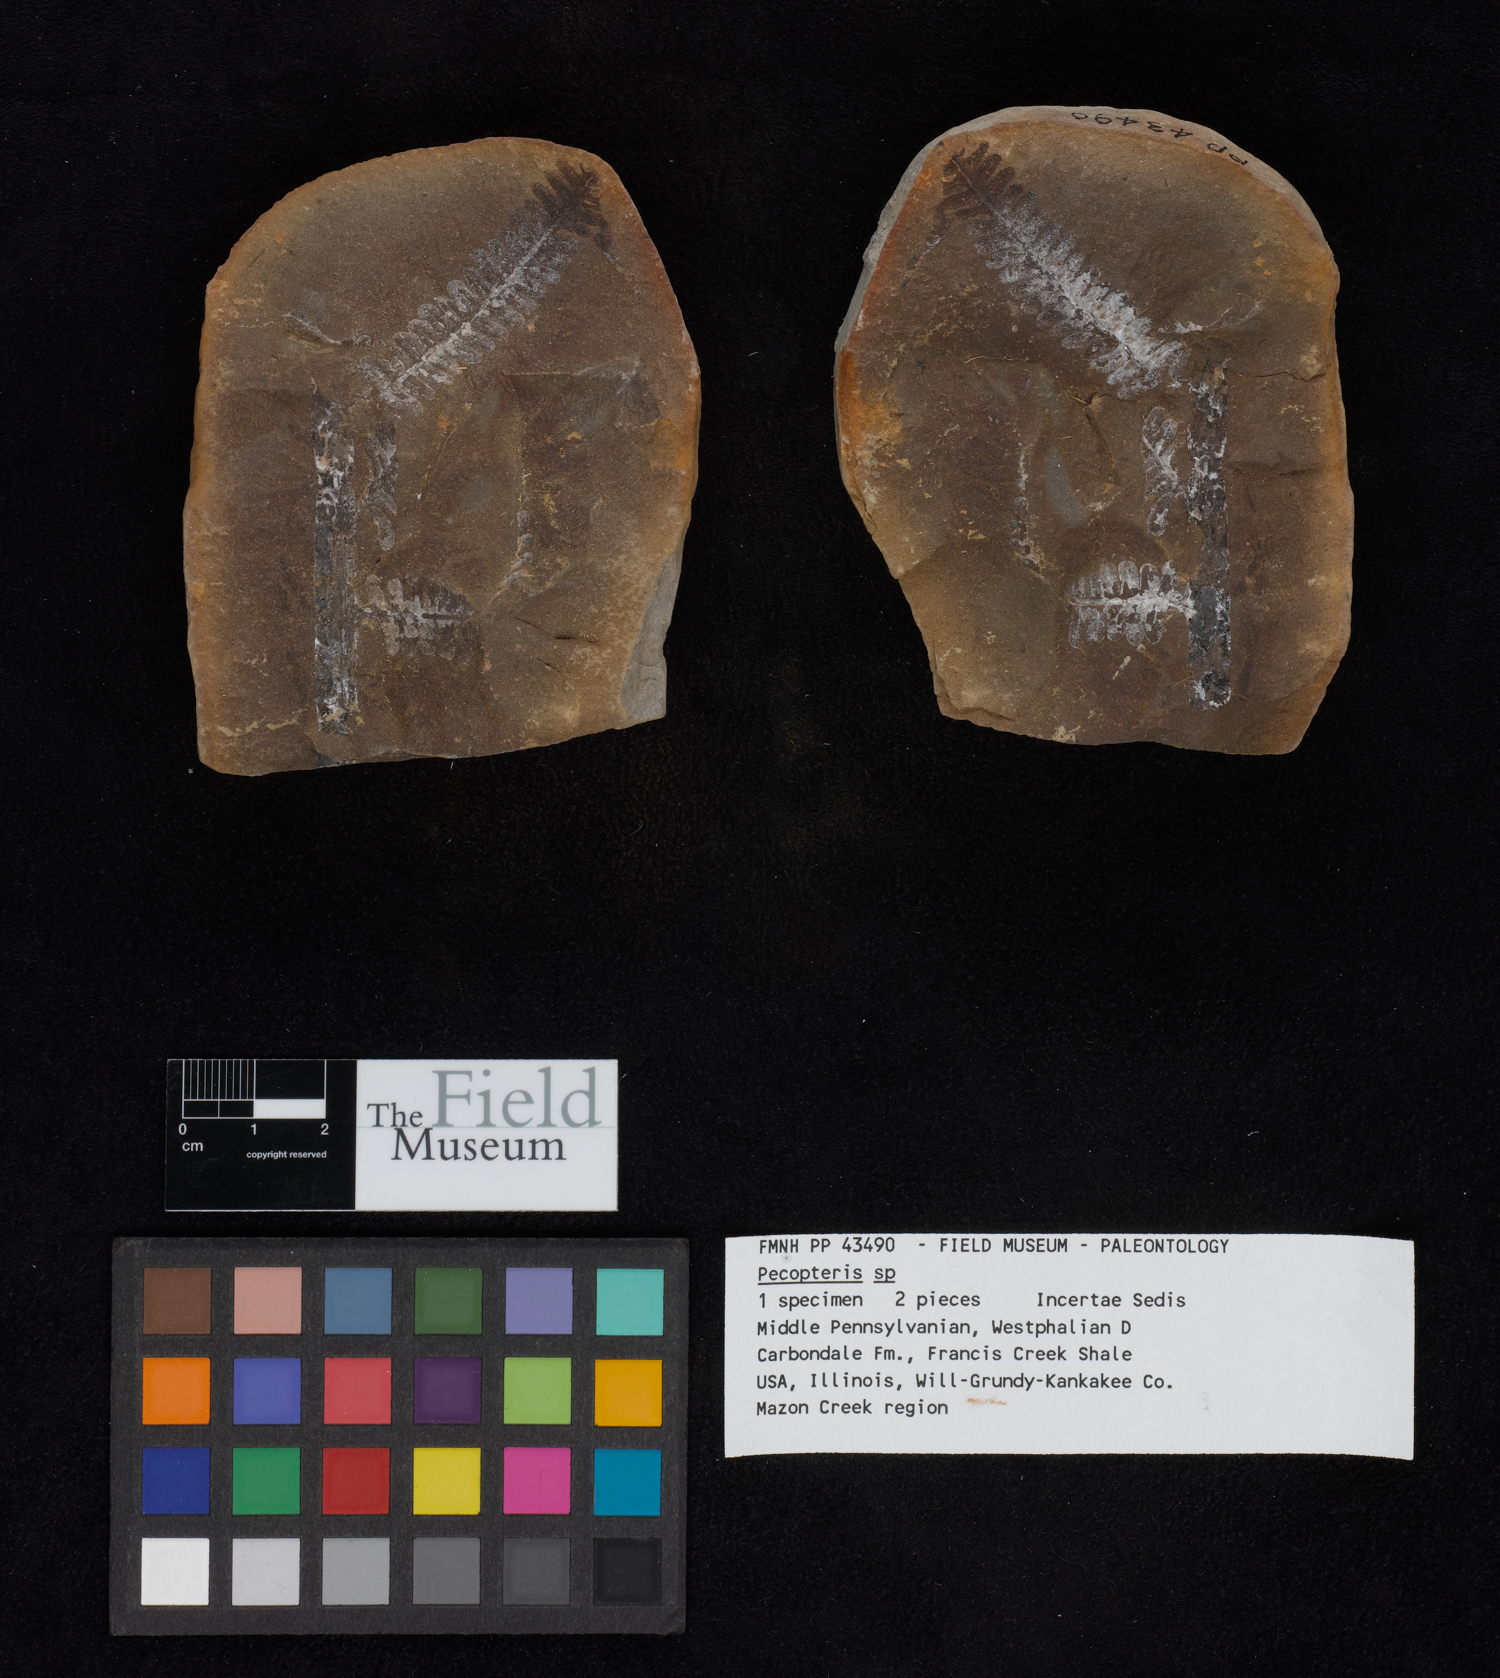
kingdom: Plantae
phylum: Tracheophyta
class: Polypodiopsida
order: Marattiales
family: Asterothecaceae
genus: Pecopteris
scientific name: Pecopteris
